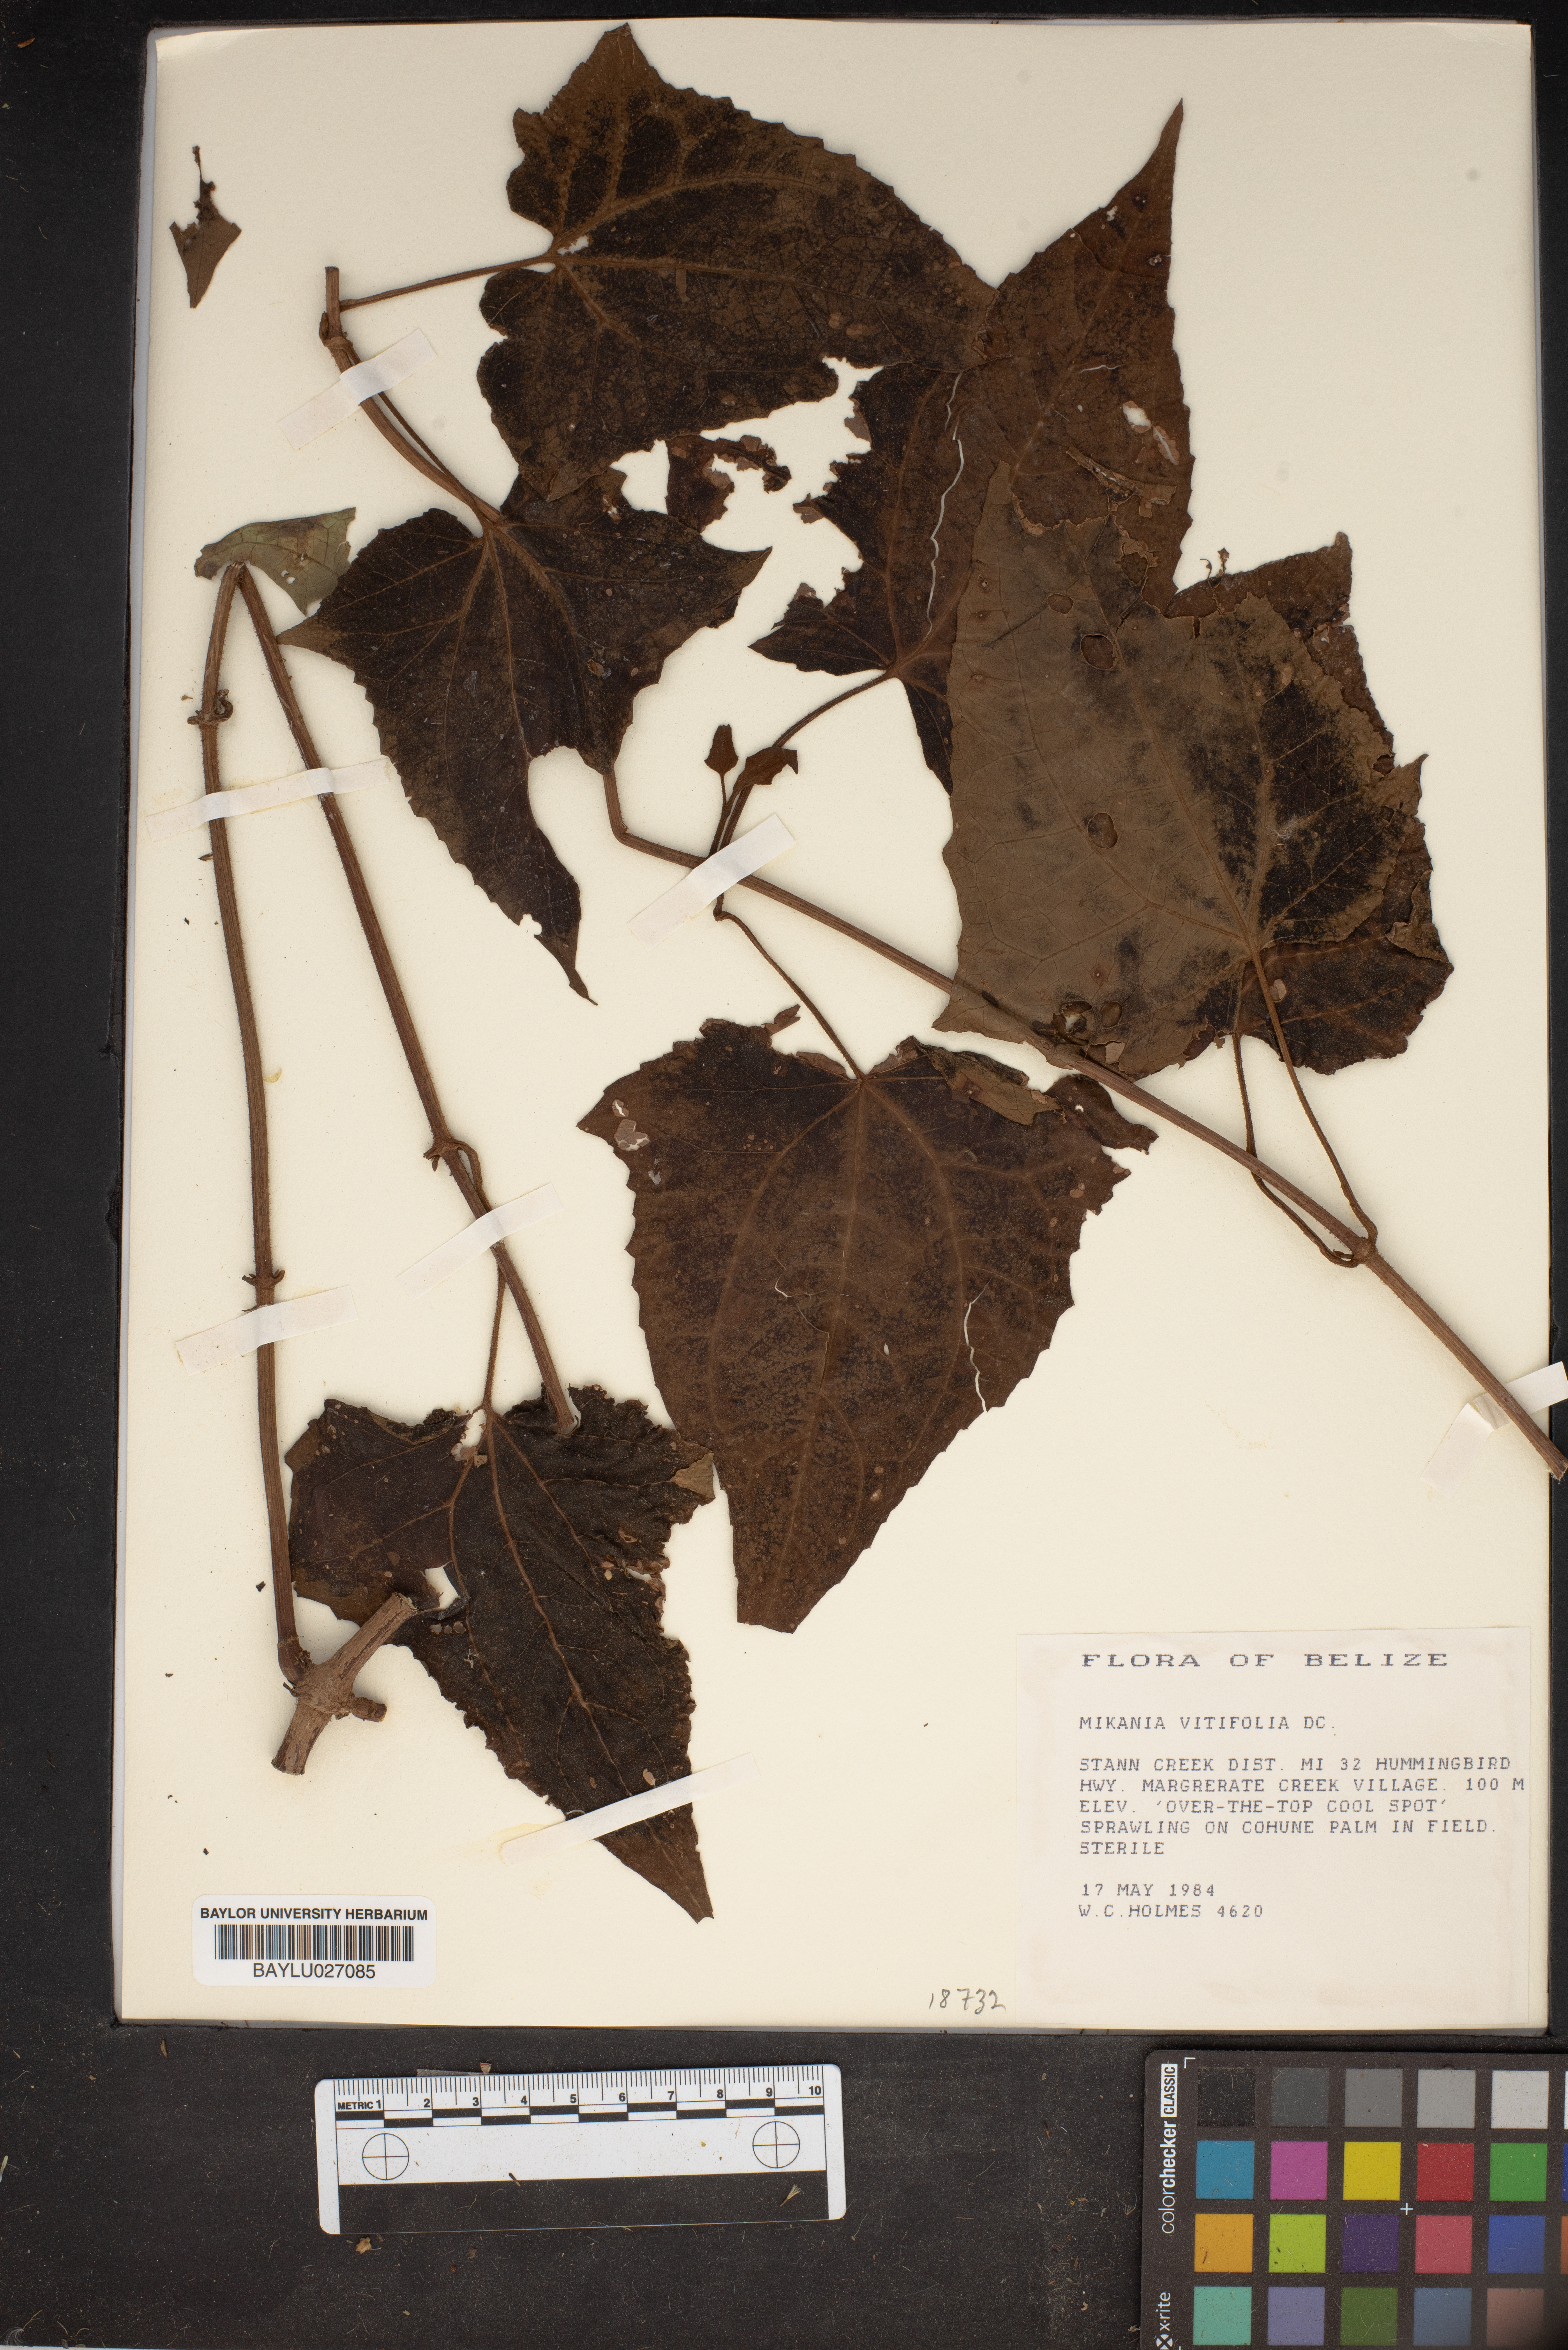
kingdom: Plantae
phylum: Tracheophyta
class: Magnoliopsida
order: Asterales
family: Asteraceae
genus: Mikania
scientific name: Mikania vitifolia
